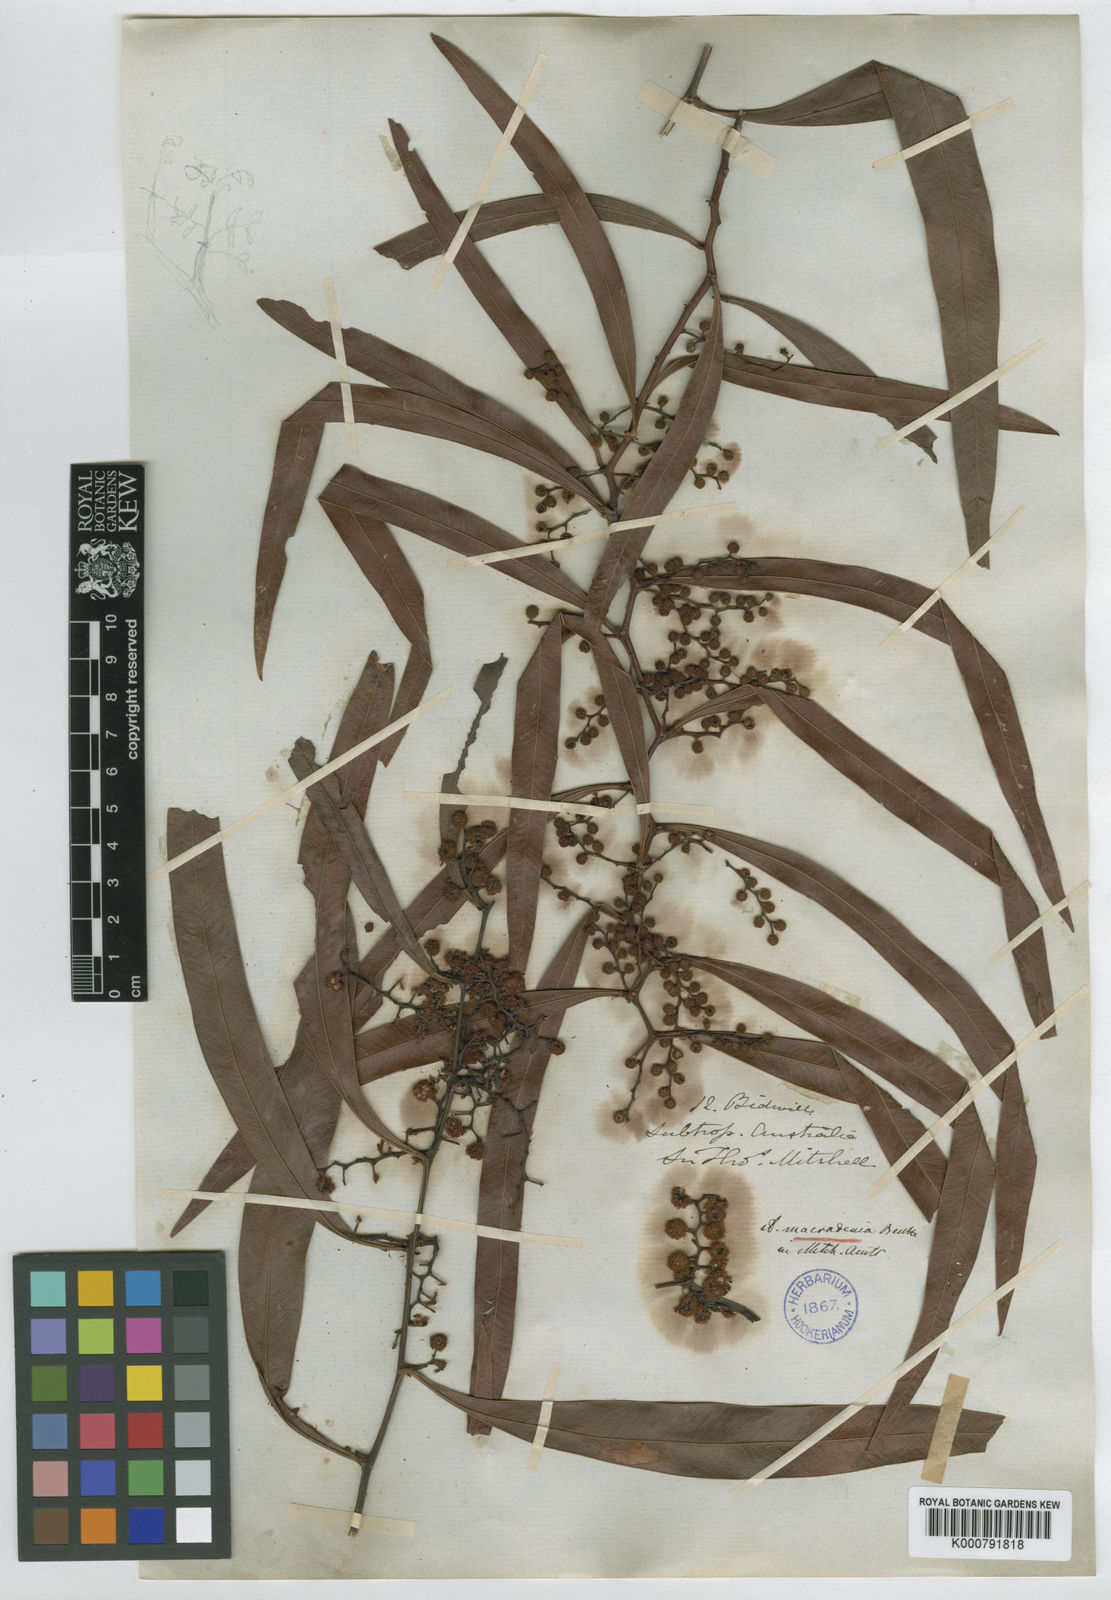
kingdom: Plantae
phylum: Tracheophyta
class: Magnoliopsida
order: Fabales
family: Fabaceae
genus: Acacia
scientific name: Acacia macradenia
